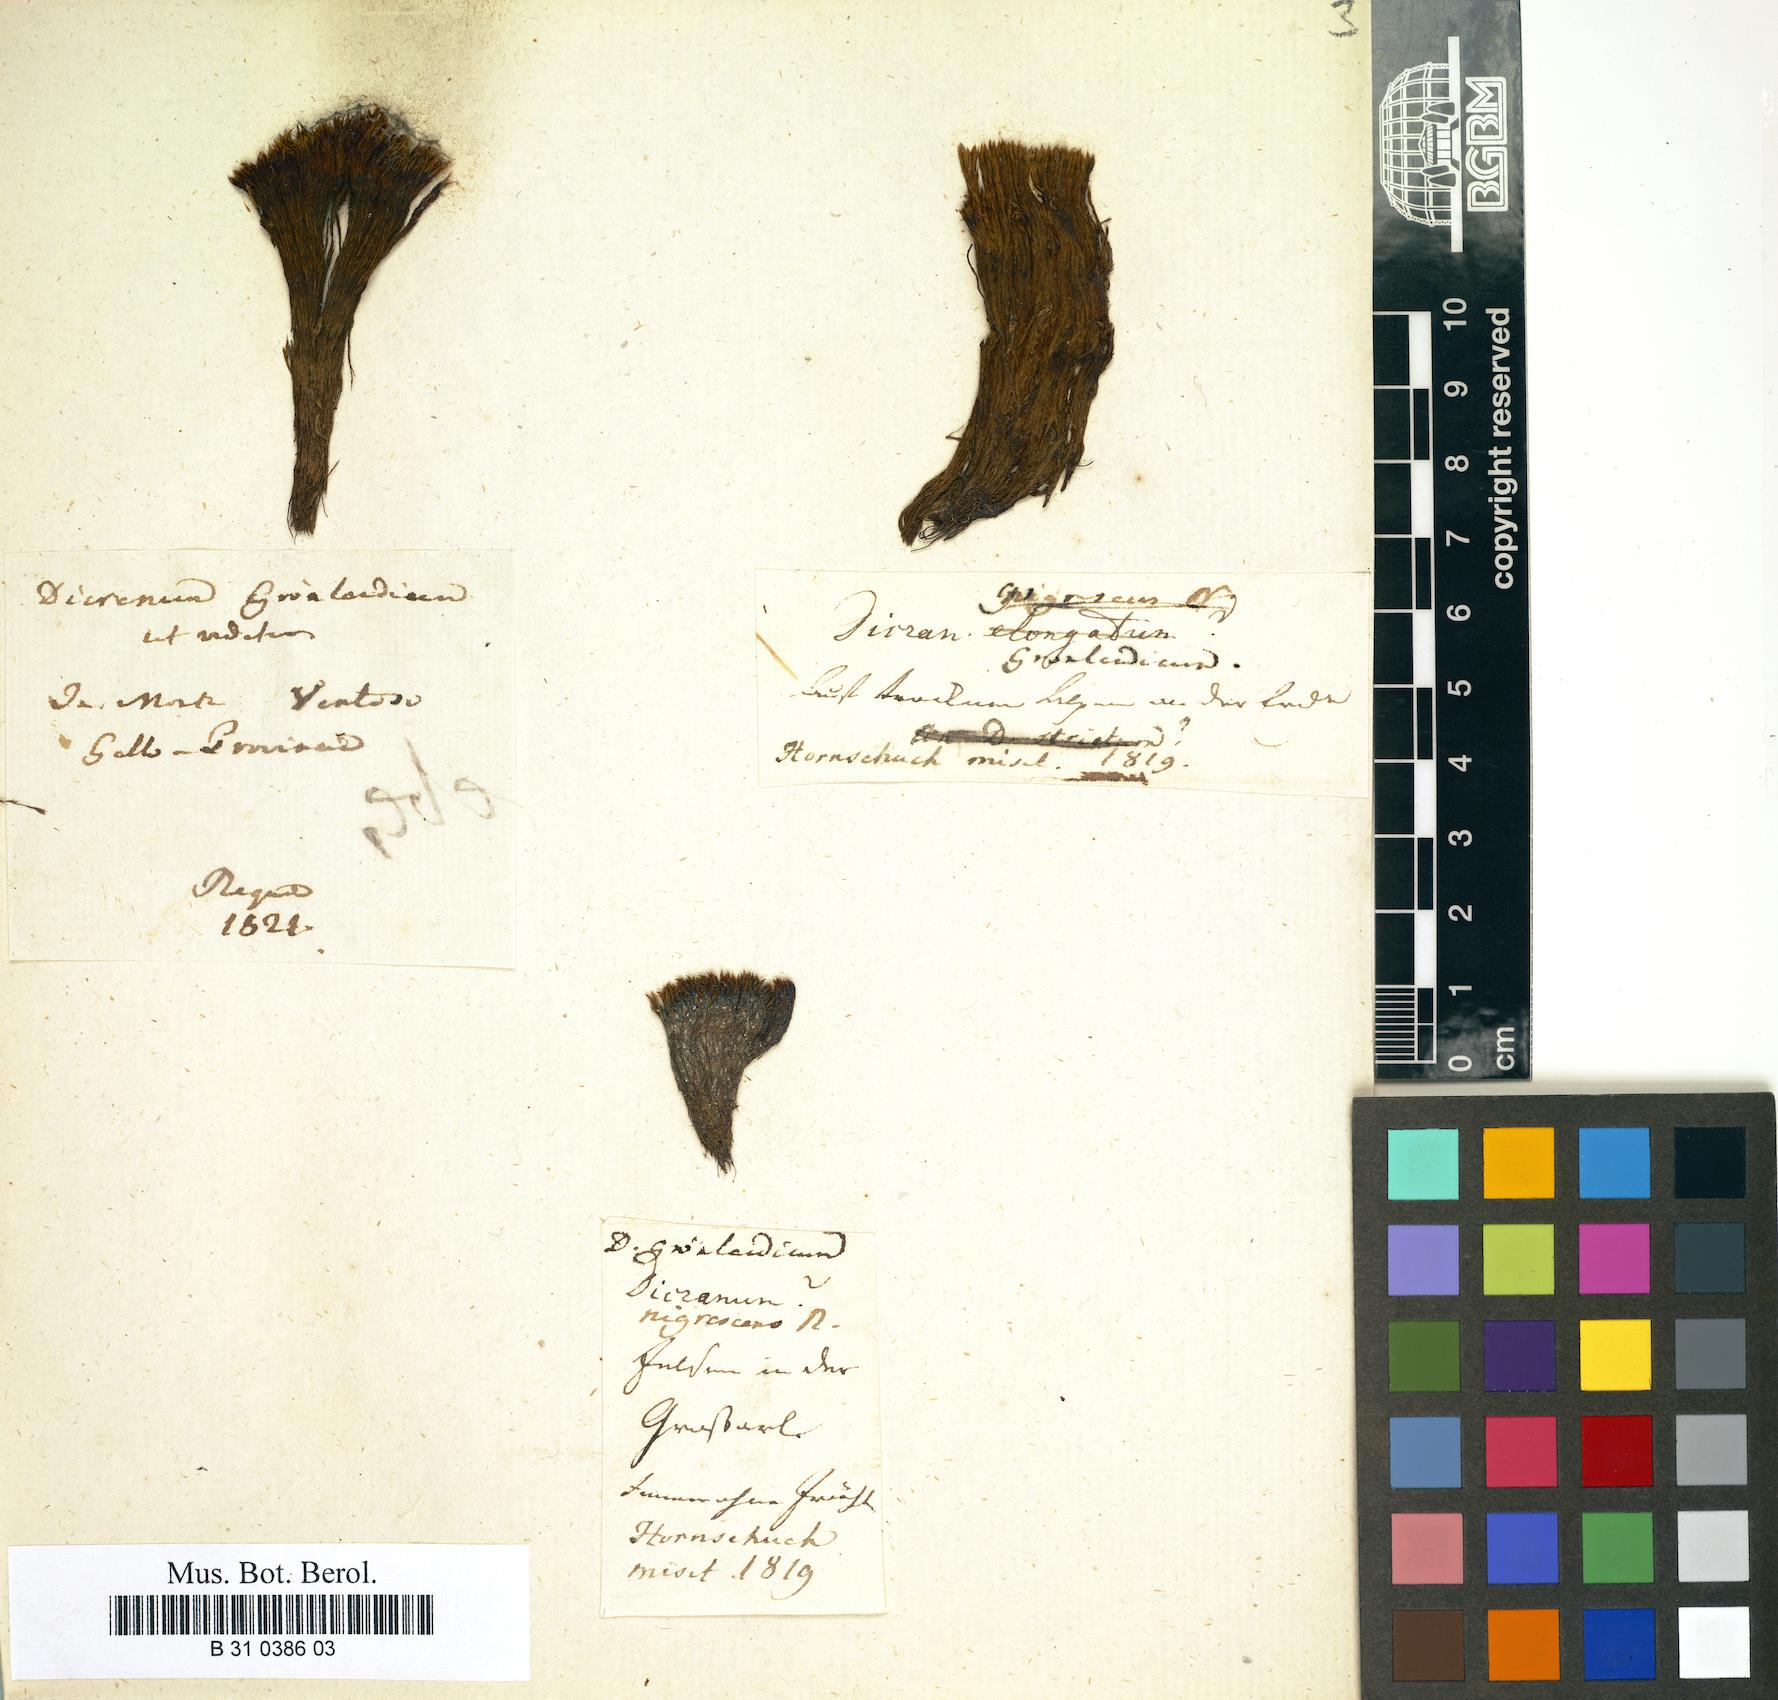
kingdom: Plantae
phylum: Bryophyta
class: Bryopsida
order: Dicranales
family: Dicranaceae
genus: Dicranum
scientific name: Dicranum groenlandicum
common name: Greenland broom moss
